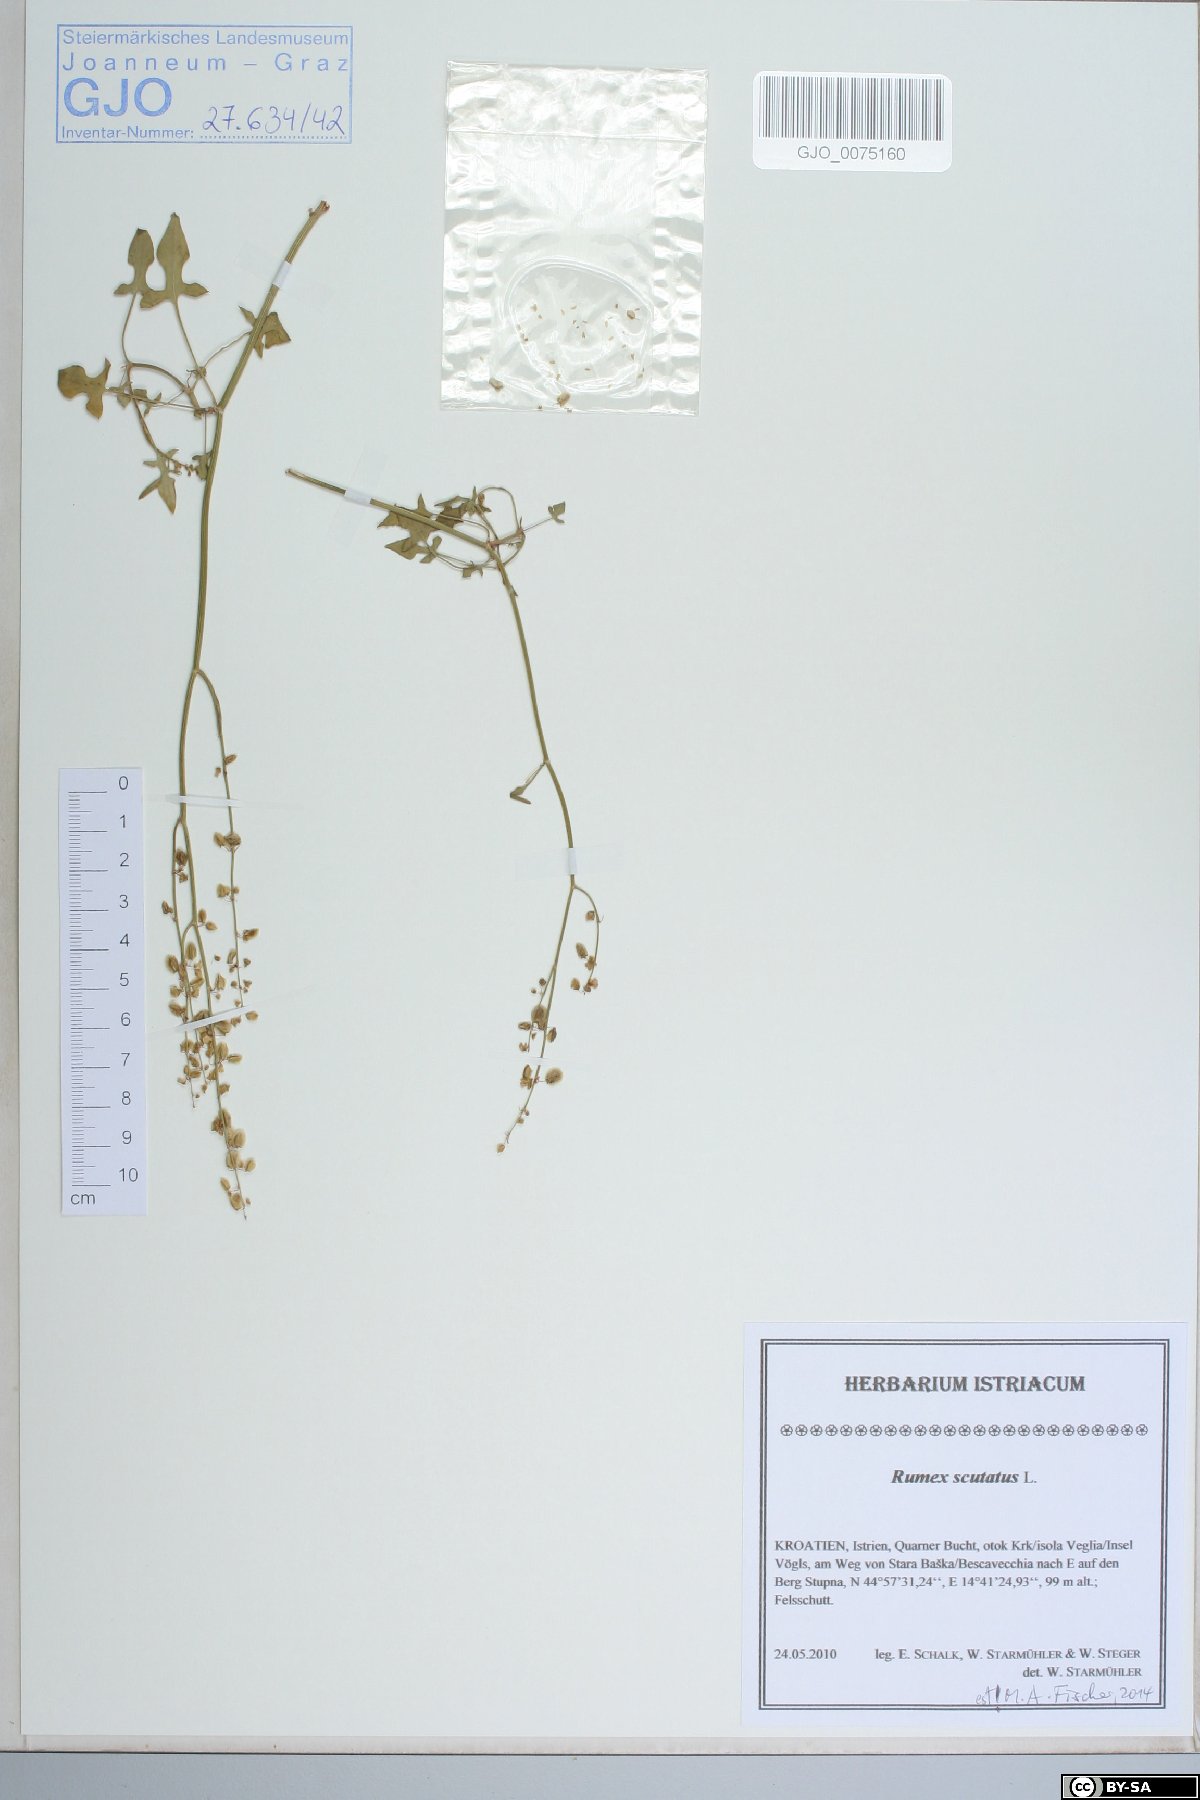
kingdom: Plantae
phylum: Tracheophyta
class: Magnoliopsida
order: Caryophyllales
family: Polygonaceae
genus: Rumex
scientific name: Rumex scutatus
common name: French sorrel
